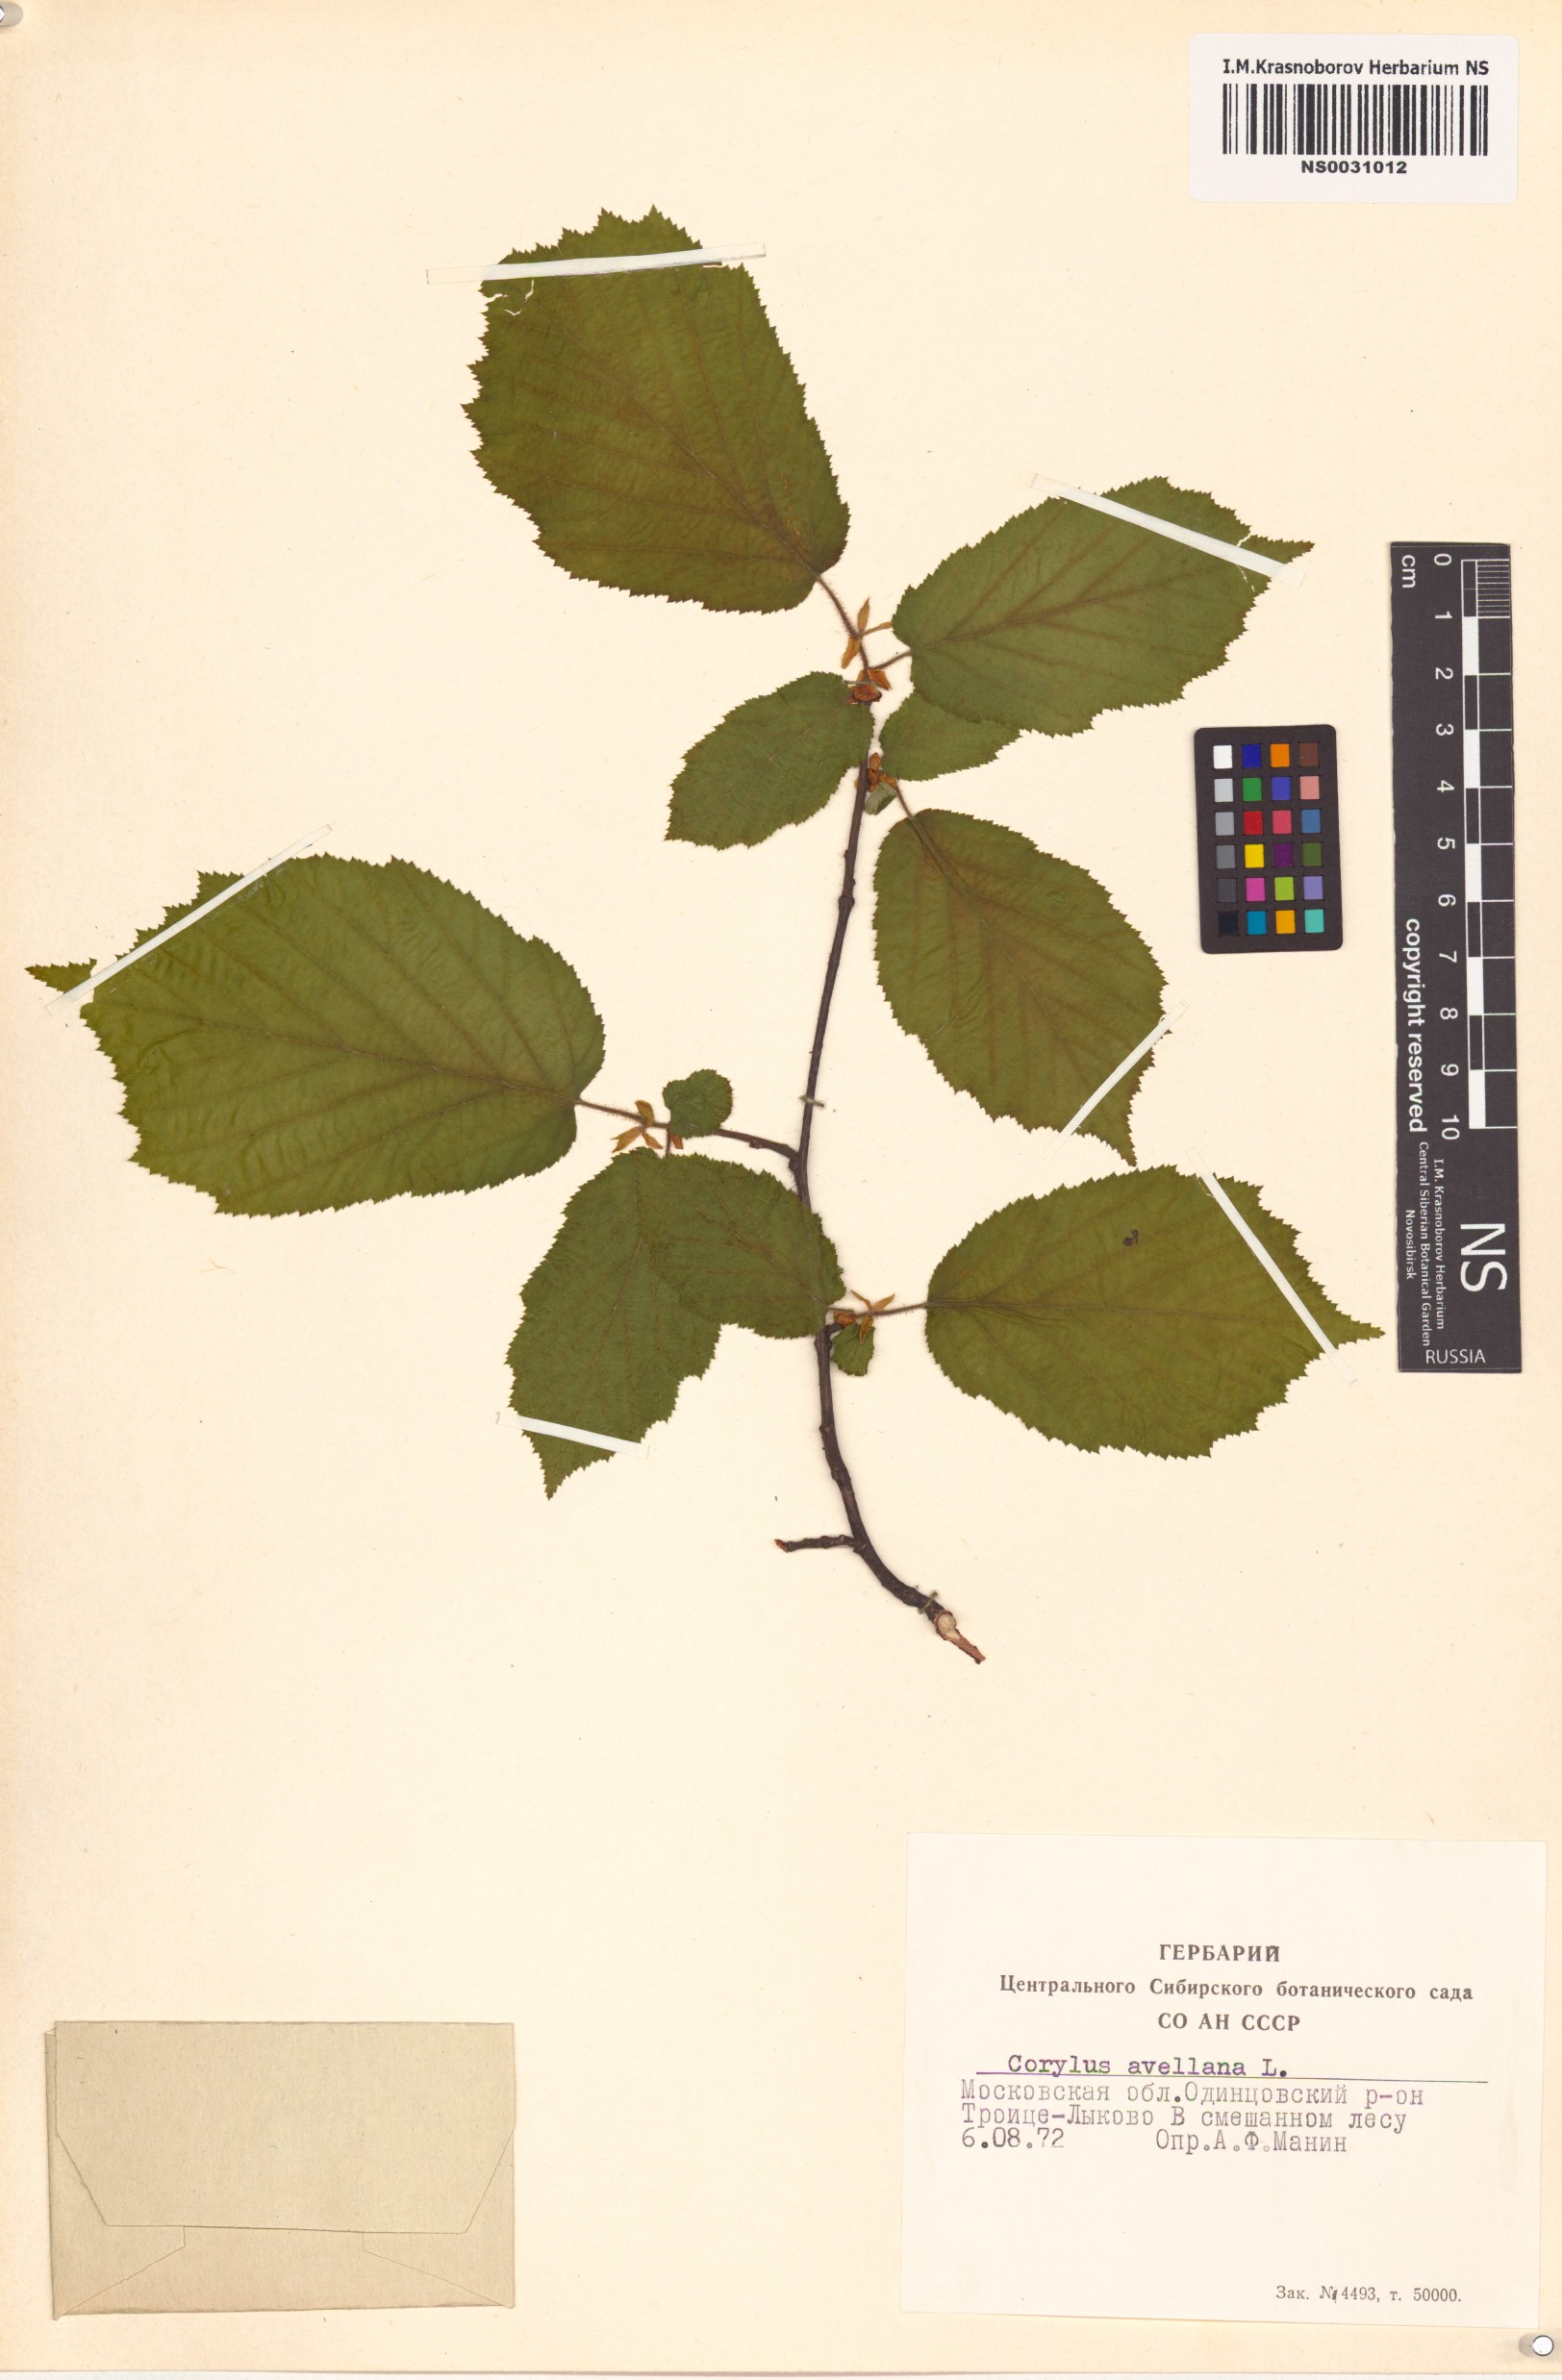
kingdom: Plantae
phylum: Tracheophyta
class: Magnoliopsida
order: Fagales
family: Betulaceae
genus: Corylus
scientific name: Corylus avellana
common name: European hazel
